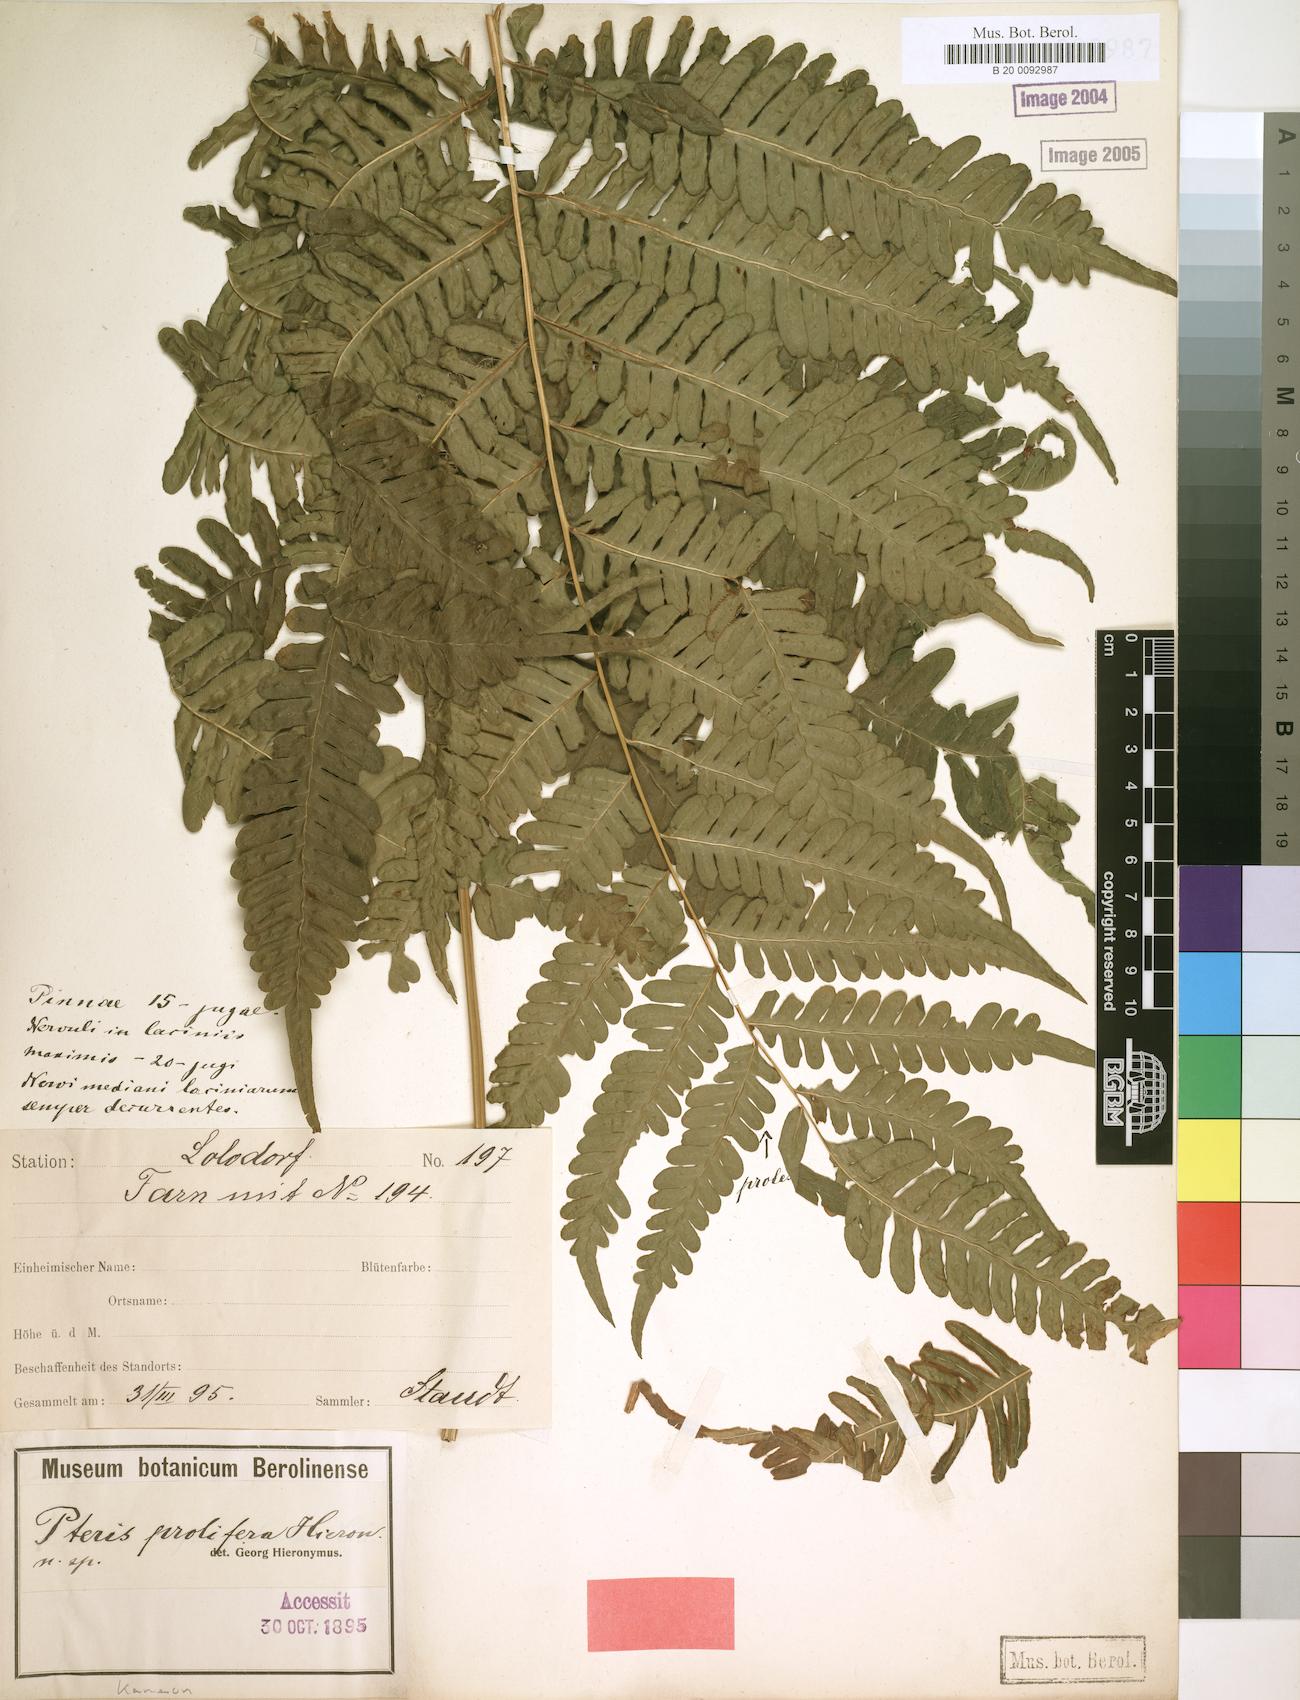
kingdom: Plantae
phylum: Tracheophyta
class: Polypodiopsida
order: Polypodiales
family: Pteridaceae
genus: Pteris
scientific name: Pteris preussii
